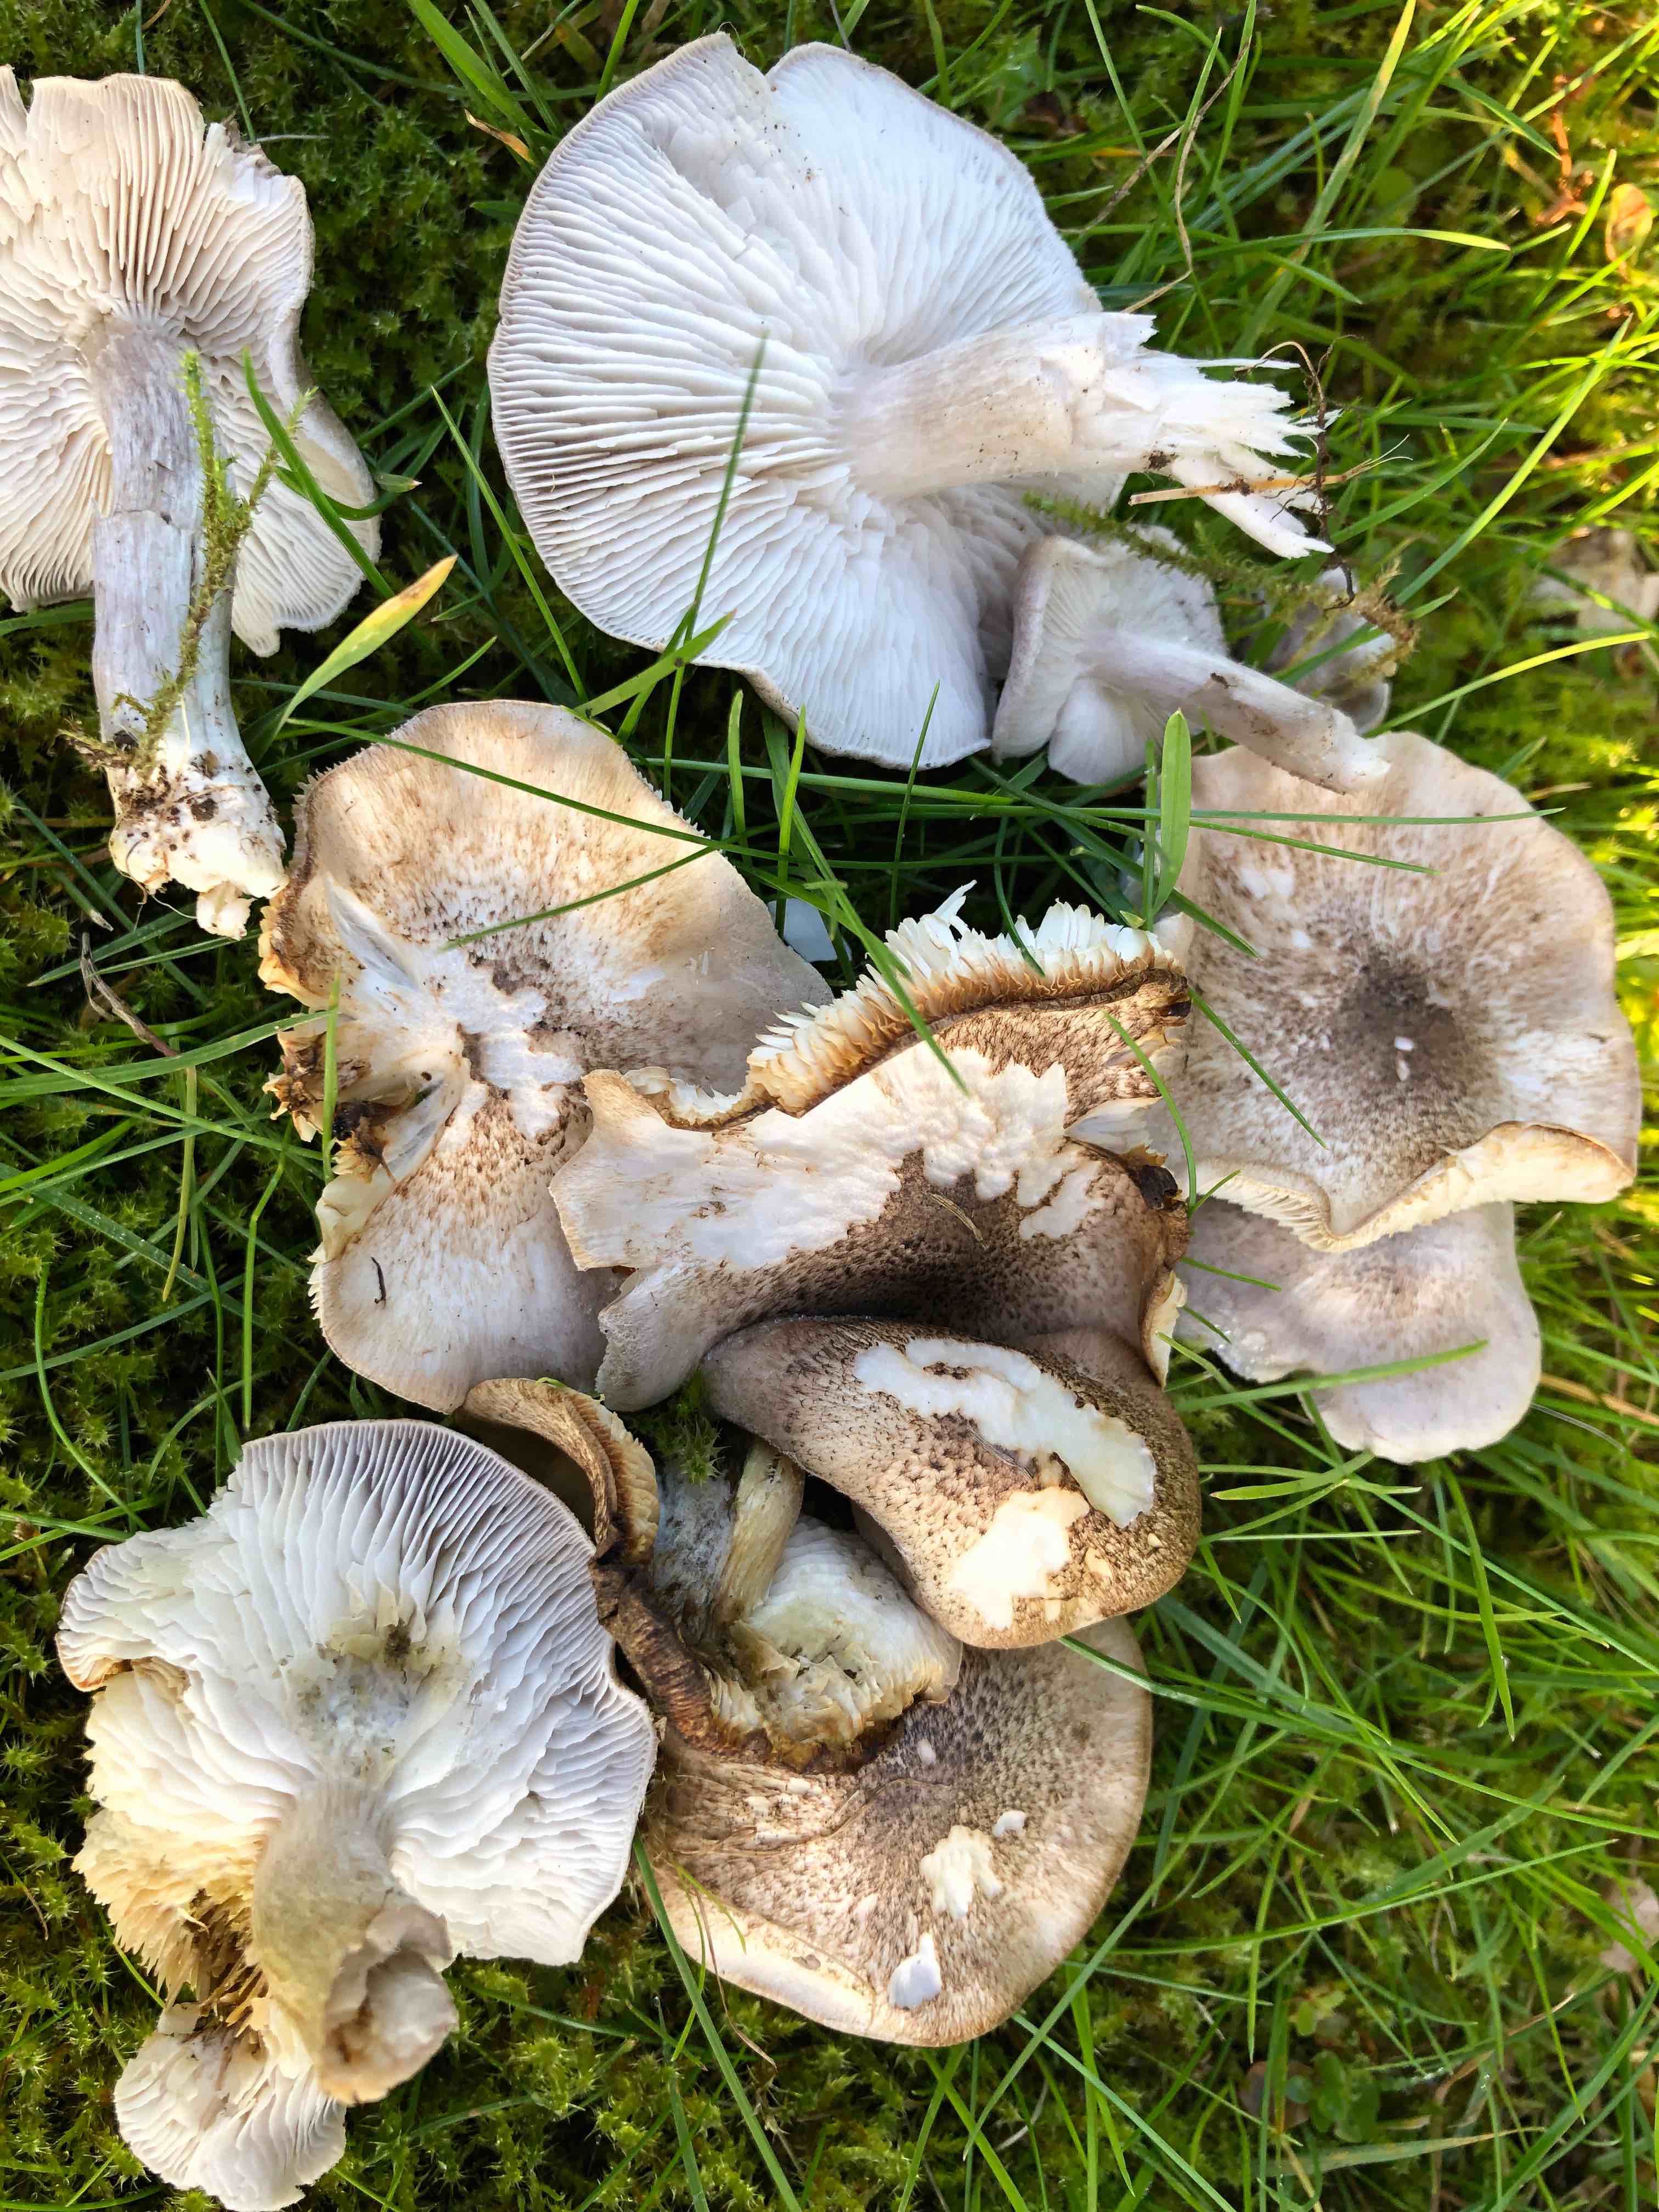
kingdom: Fungi
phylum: Basidiomycota
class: Agaricomycetes
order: Agaricales
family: Tricholomataceae
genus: Tricholoma
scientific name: Tricholoma scalpturatum
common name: gulplettet ridderhat
